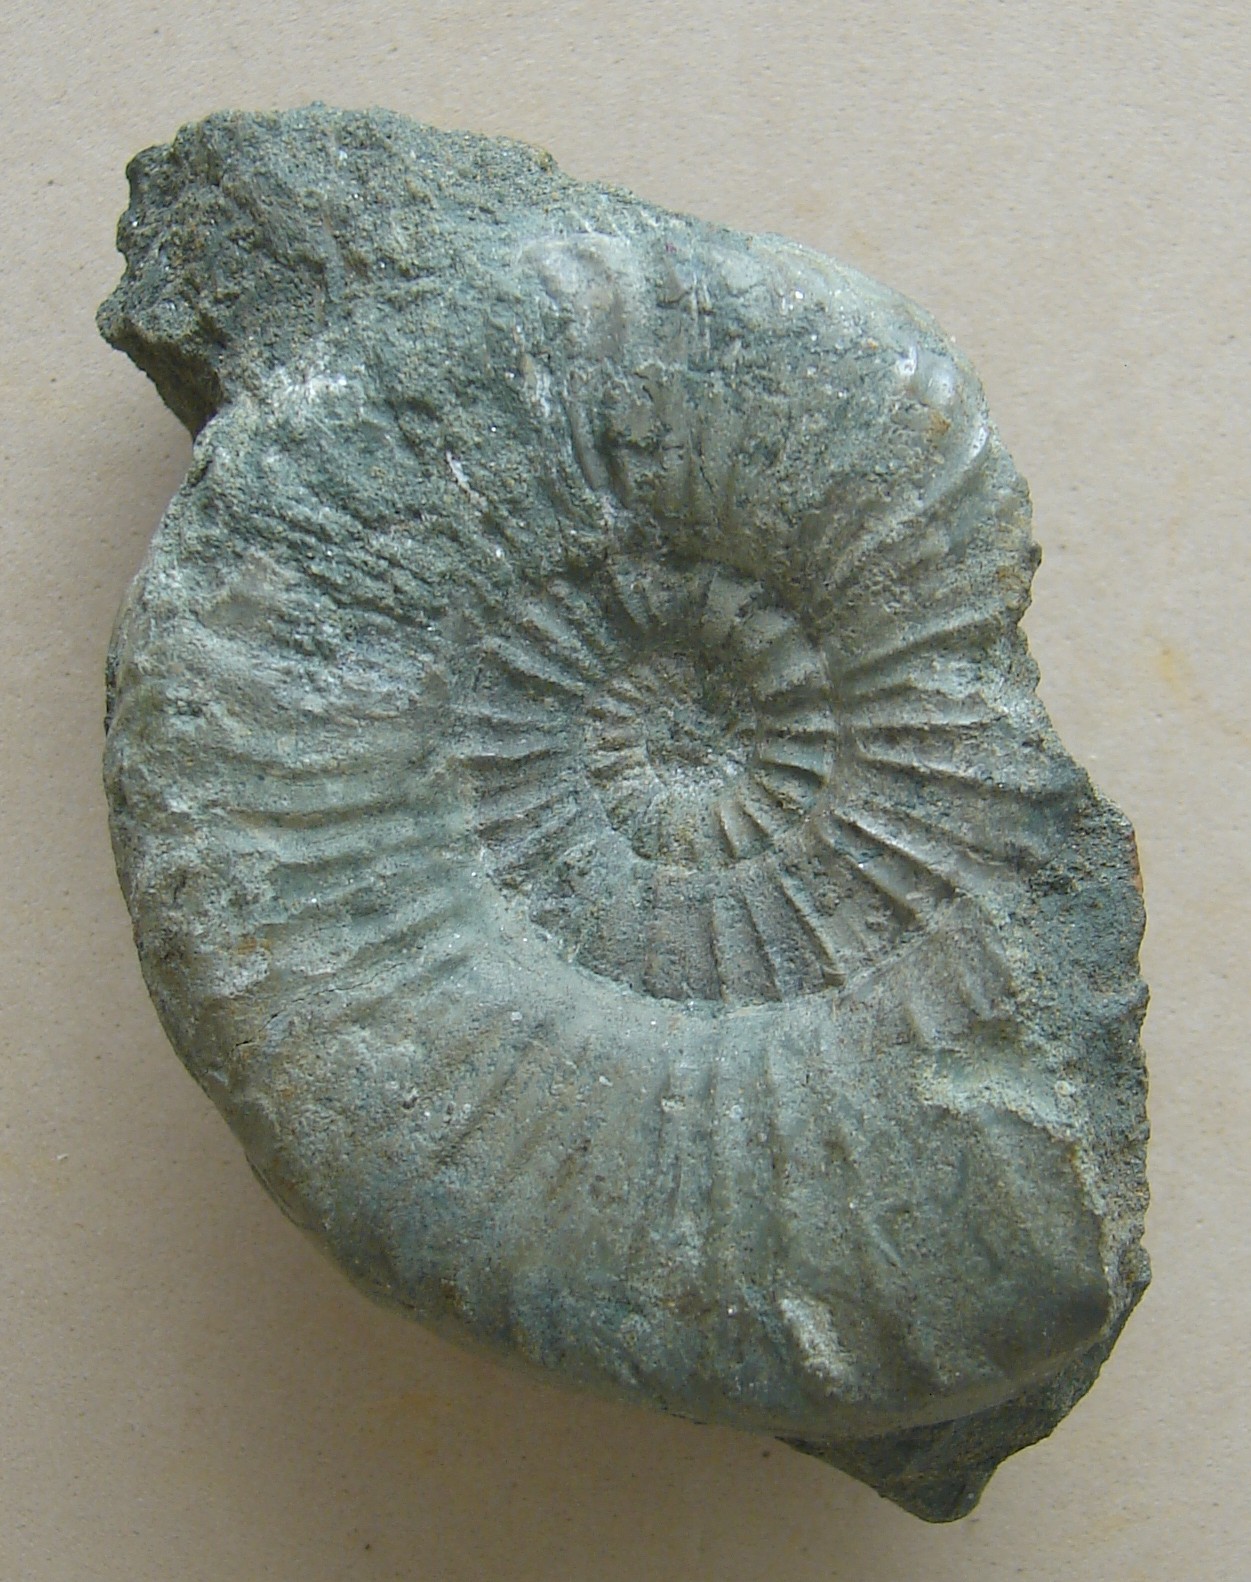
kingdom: Animalia
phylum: Mollusca
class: Cephalopoda
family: Hildoceratidae
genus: Dumortieria
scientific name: Dumortieria radians
